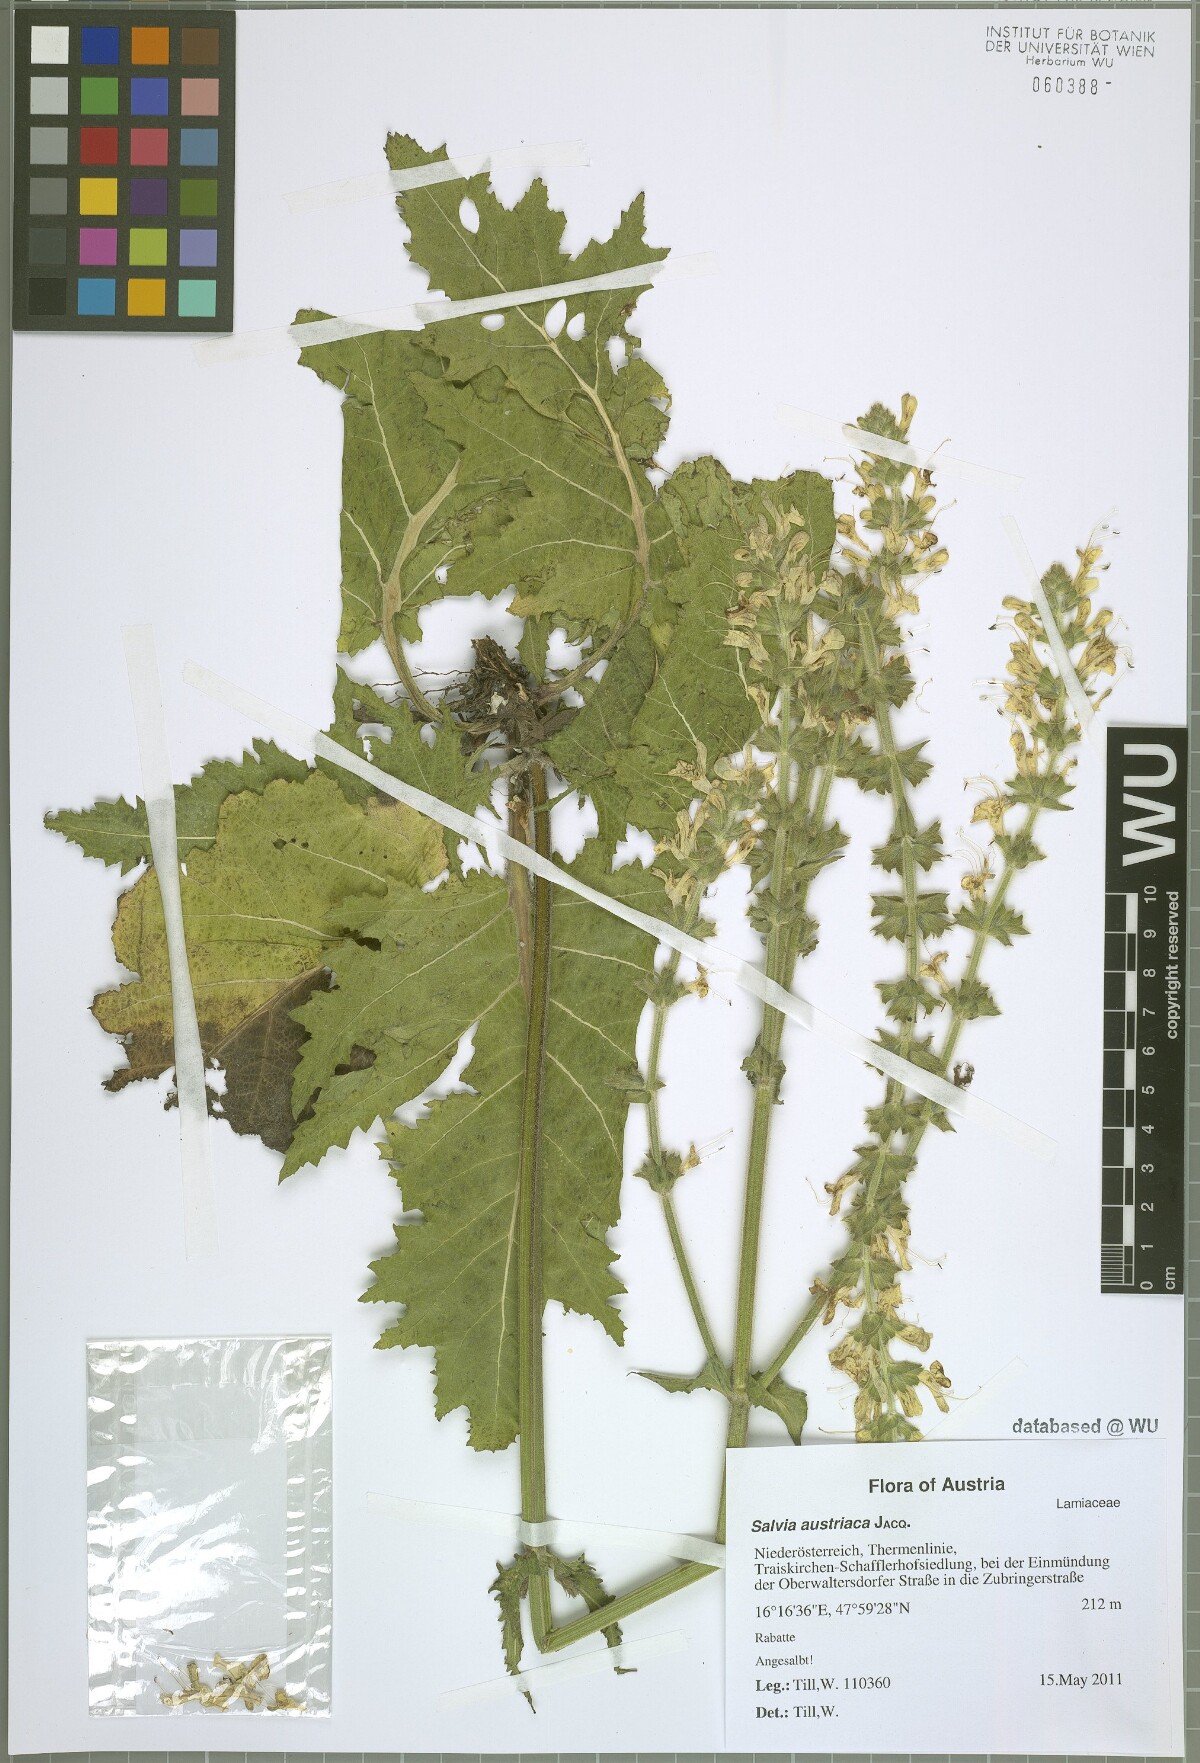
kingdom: Plantae
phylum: Tracheophyta
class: Magnoliopsida
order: Lamiales
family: Lamiaceae
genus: Salvia
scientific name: Salvia austriaca
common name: Austrian sage
